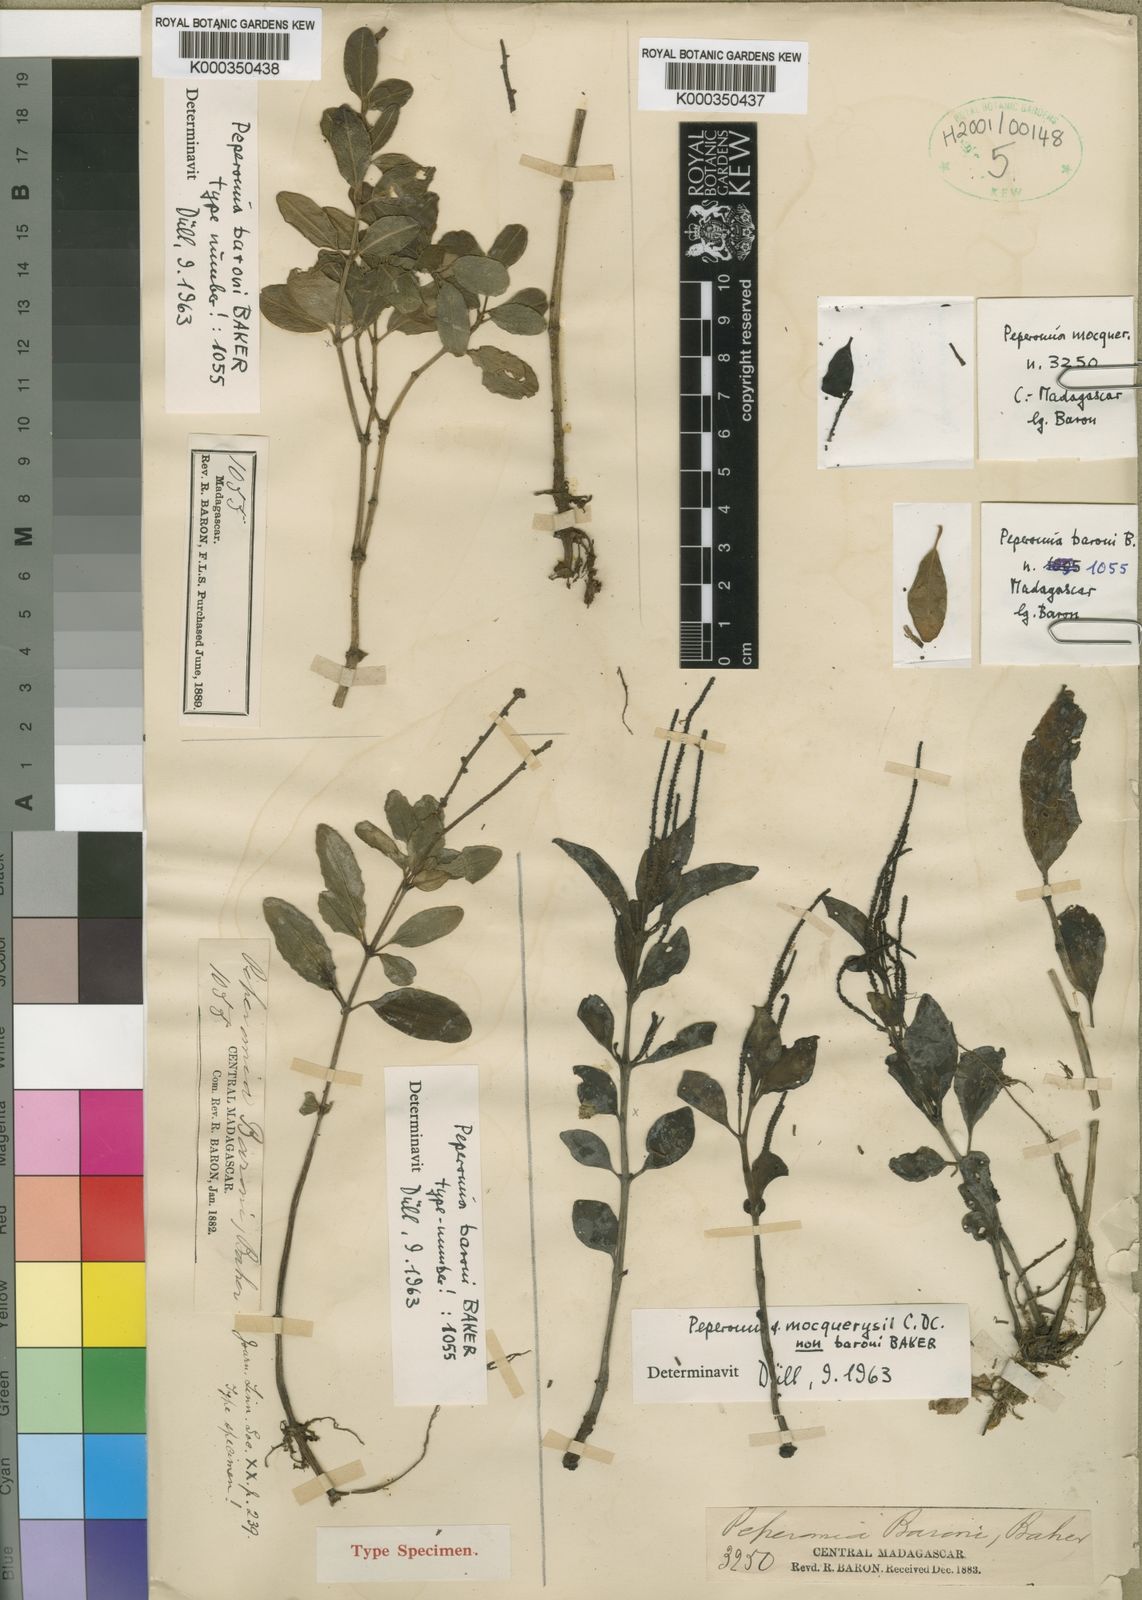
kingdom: Plantae
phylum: Tracheophyta
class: Magnoliopsida
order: Piperales
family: Piperaceae
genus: Peperomia
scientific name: Peperomia baronii
